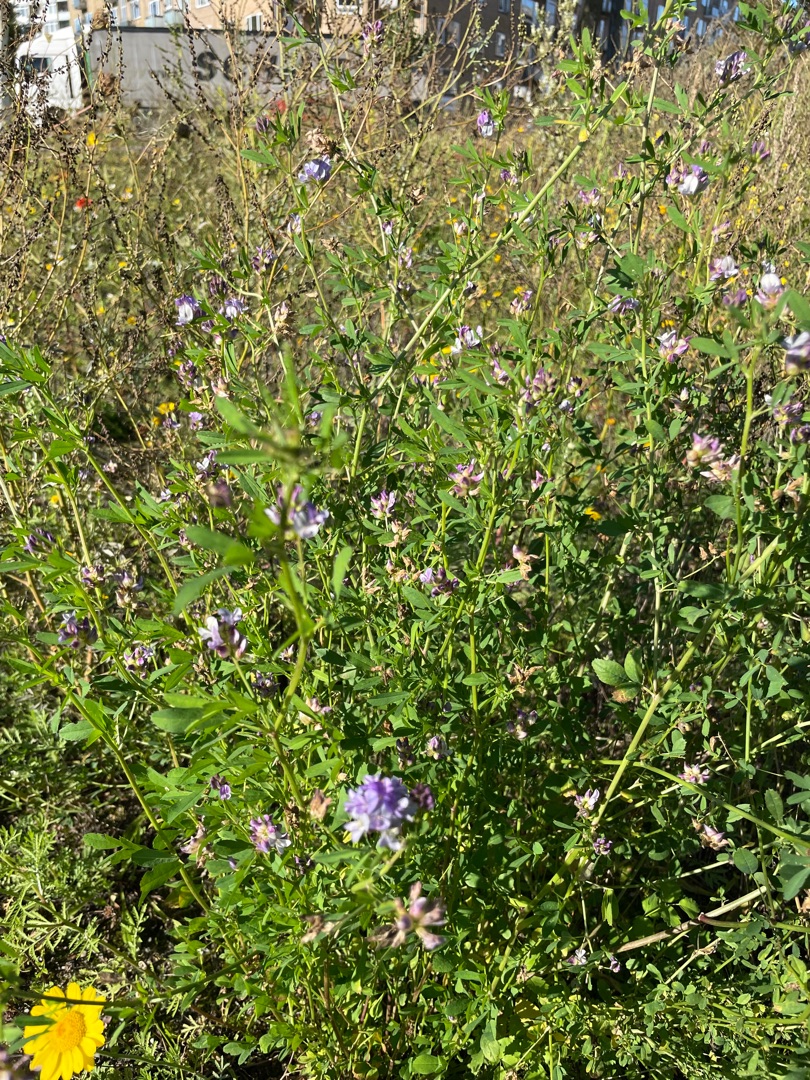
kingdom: Plantae
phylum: Tracheophyta
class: Magnoliopsida
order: Fabales
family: Fabaceae
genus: Medicago
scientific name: Medicago sativa
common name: Lucerne
